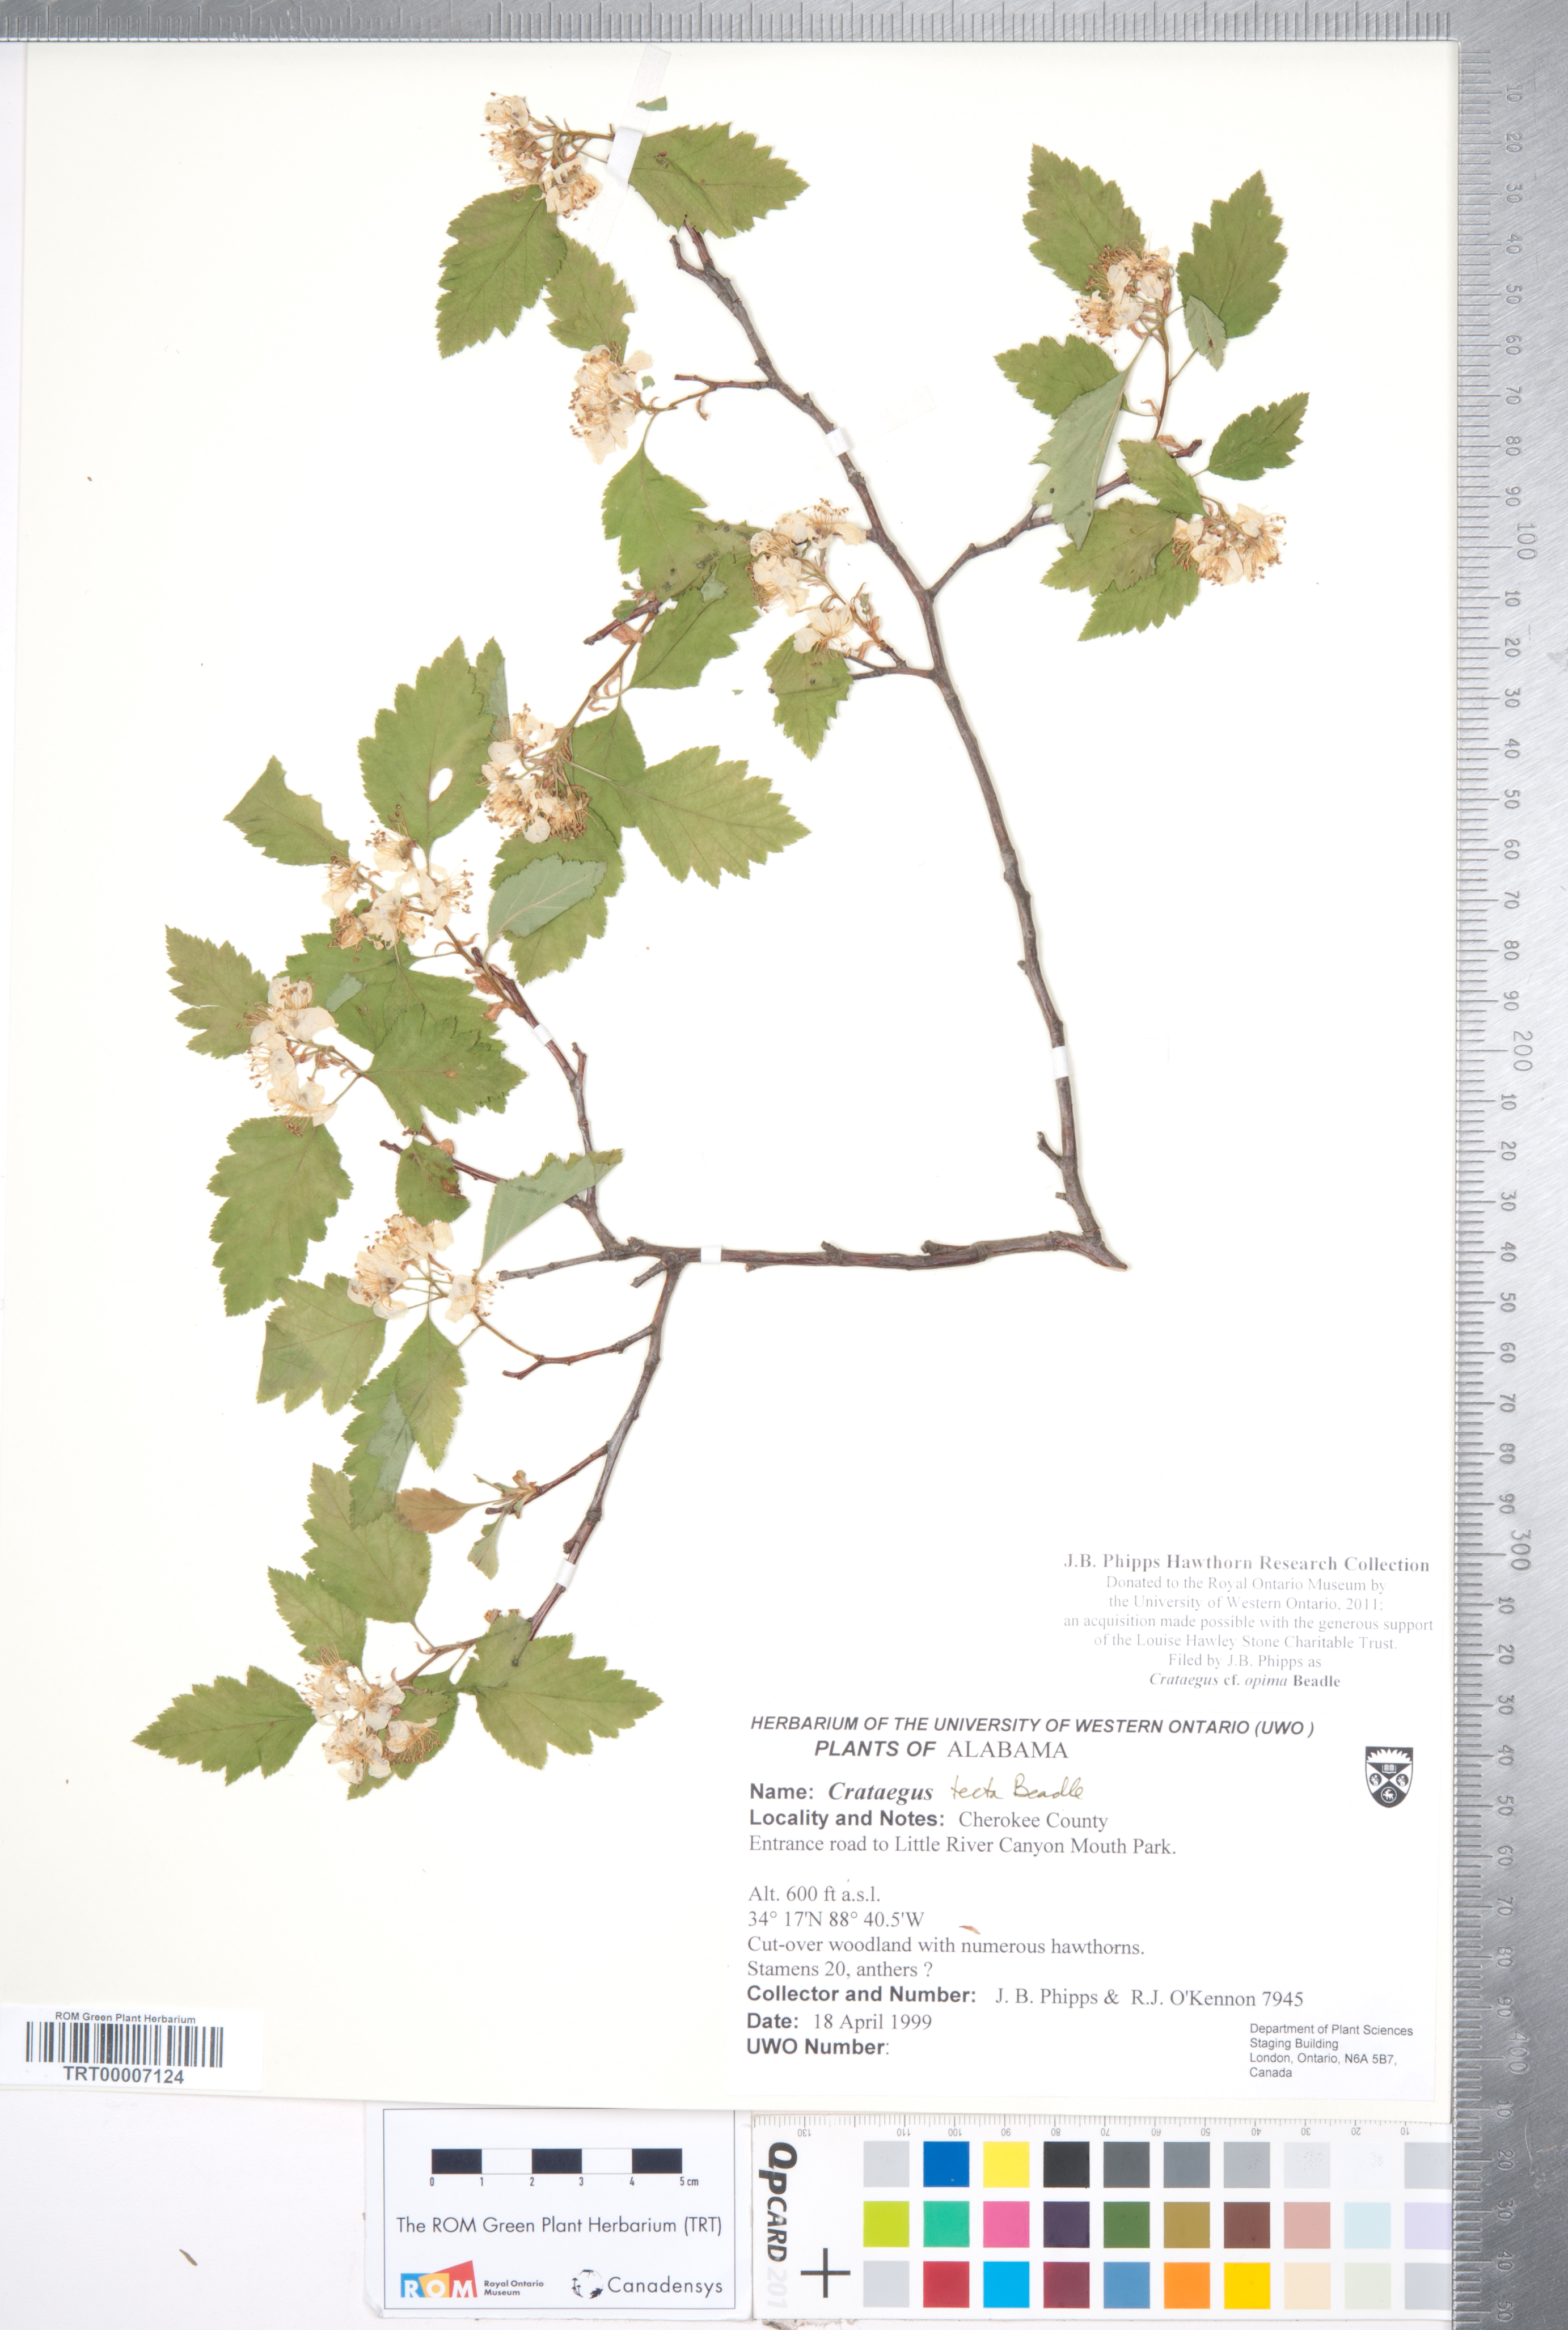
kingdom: Plantae
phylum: Tracheophyta
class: Magnoliopsida
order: Rosales
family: Rosaceae
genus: Crataegus
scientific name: Crataegus pulcherrima
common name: Beautiful hawthorn
